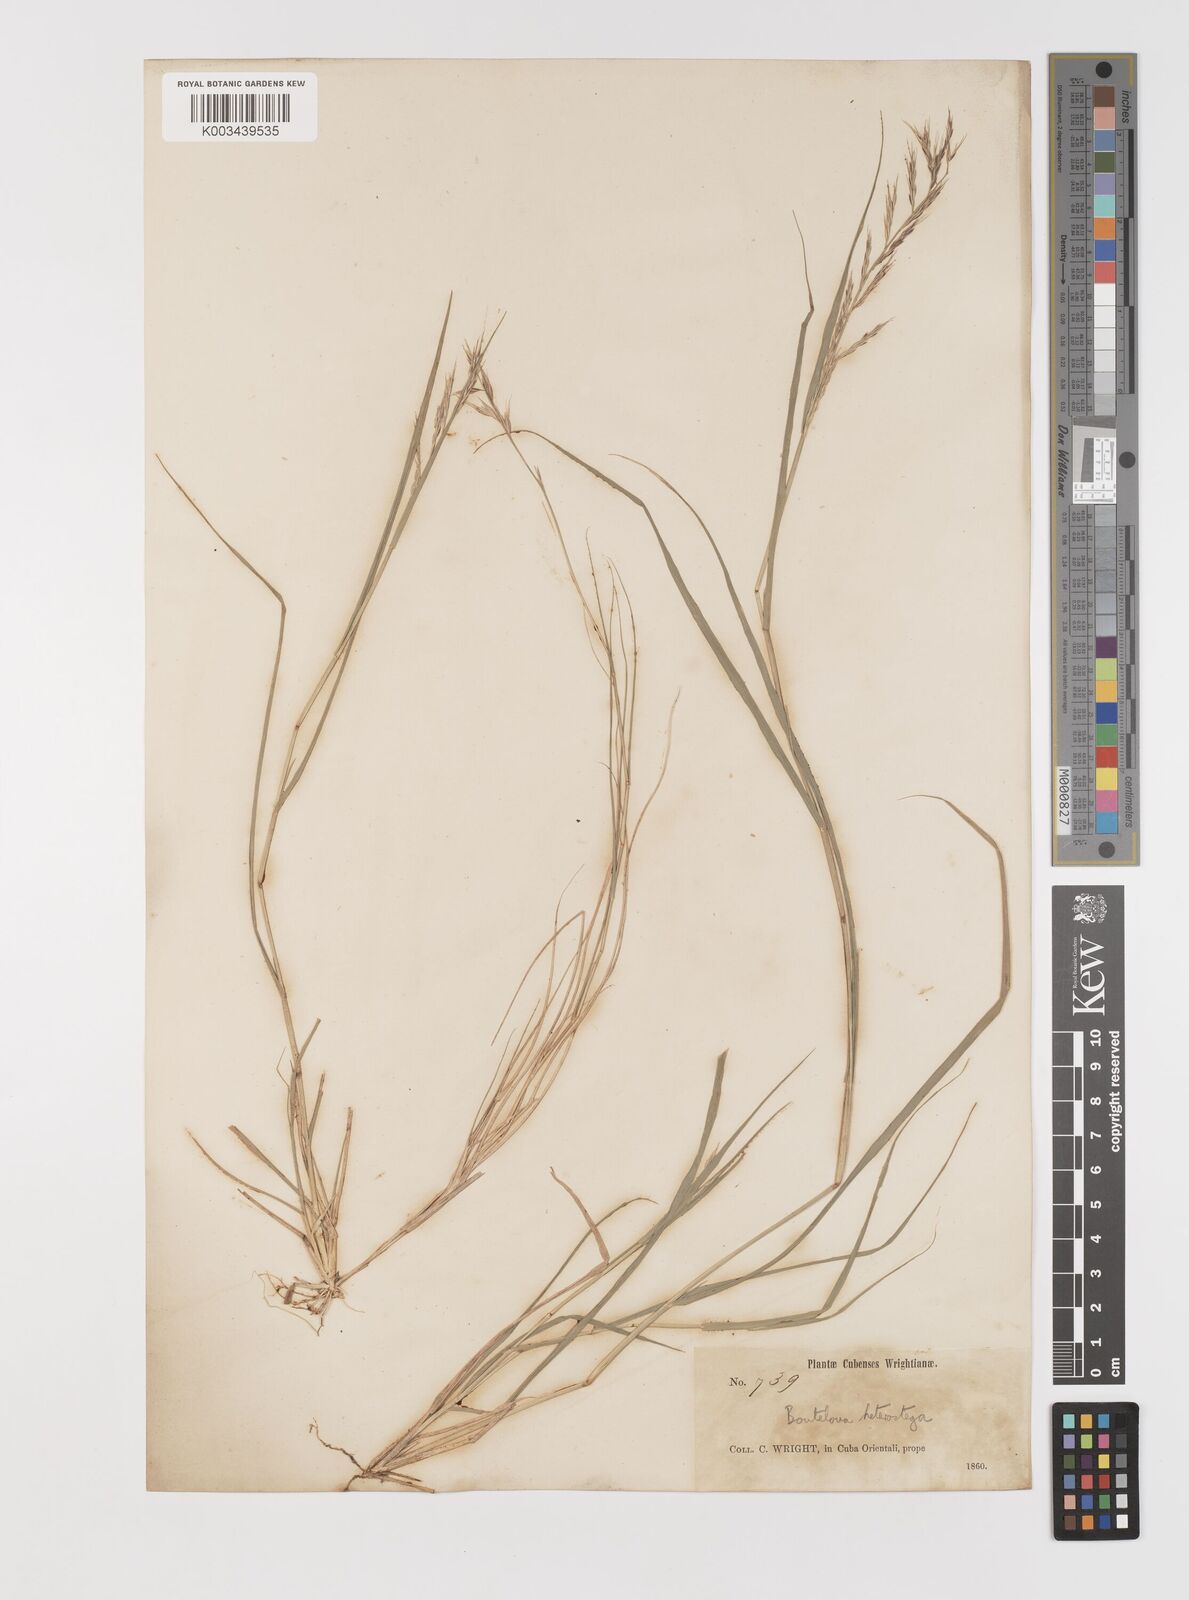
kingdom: Plantae
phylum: Tracheophyta
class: Liliopsida
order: Poales
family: Poaceae
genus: Bouteloua
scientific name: Bouteloua repens
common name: Slender grama
